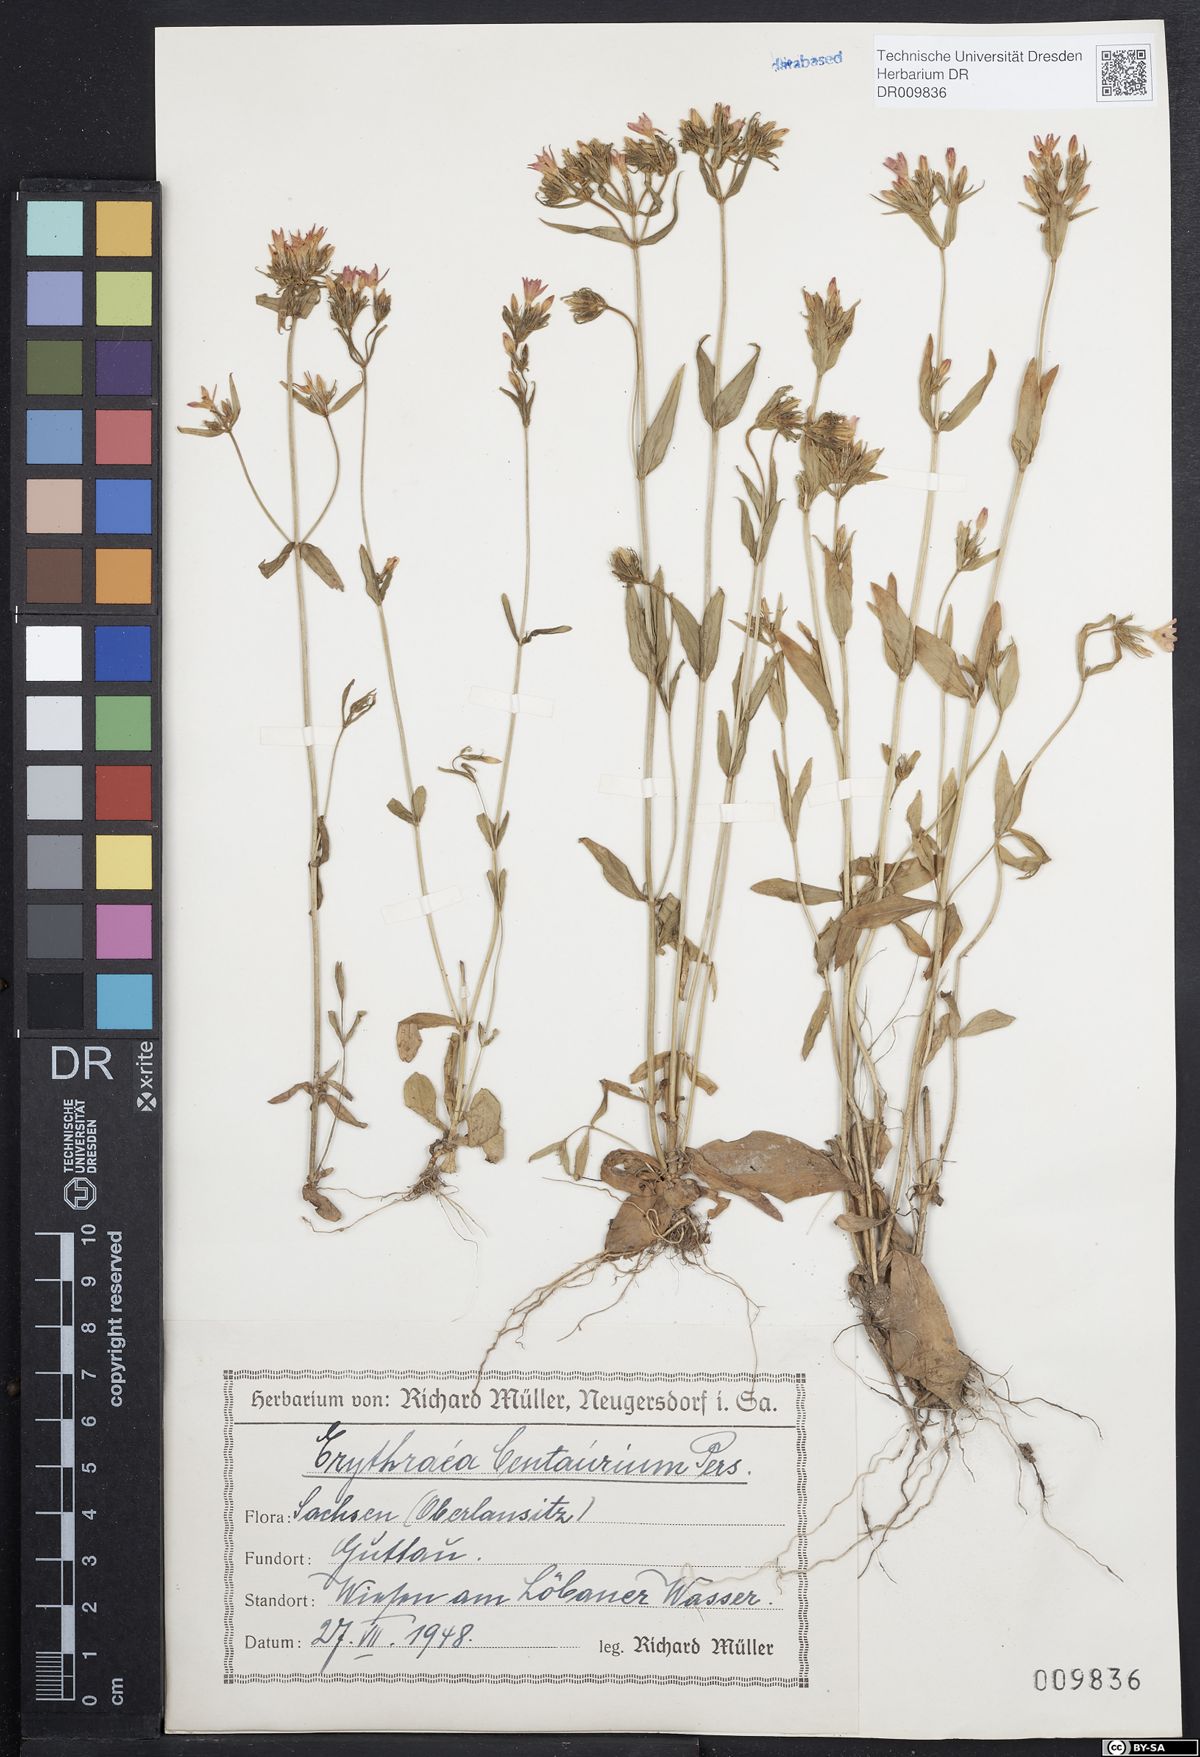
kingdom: Plantae
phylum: Tracheophyta
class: Magnoliopsida
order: Gentianales
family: Gentianaceae
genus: Centaurium
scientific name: Centaurium erythraea
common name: Common centaury
